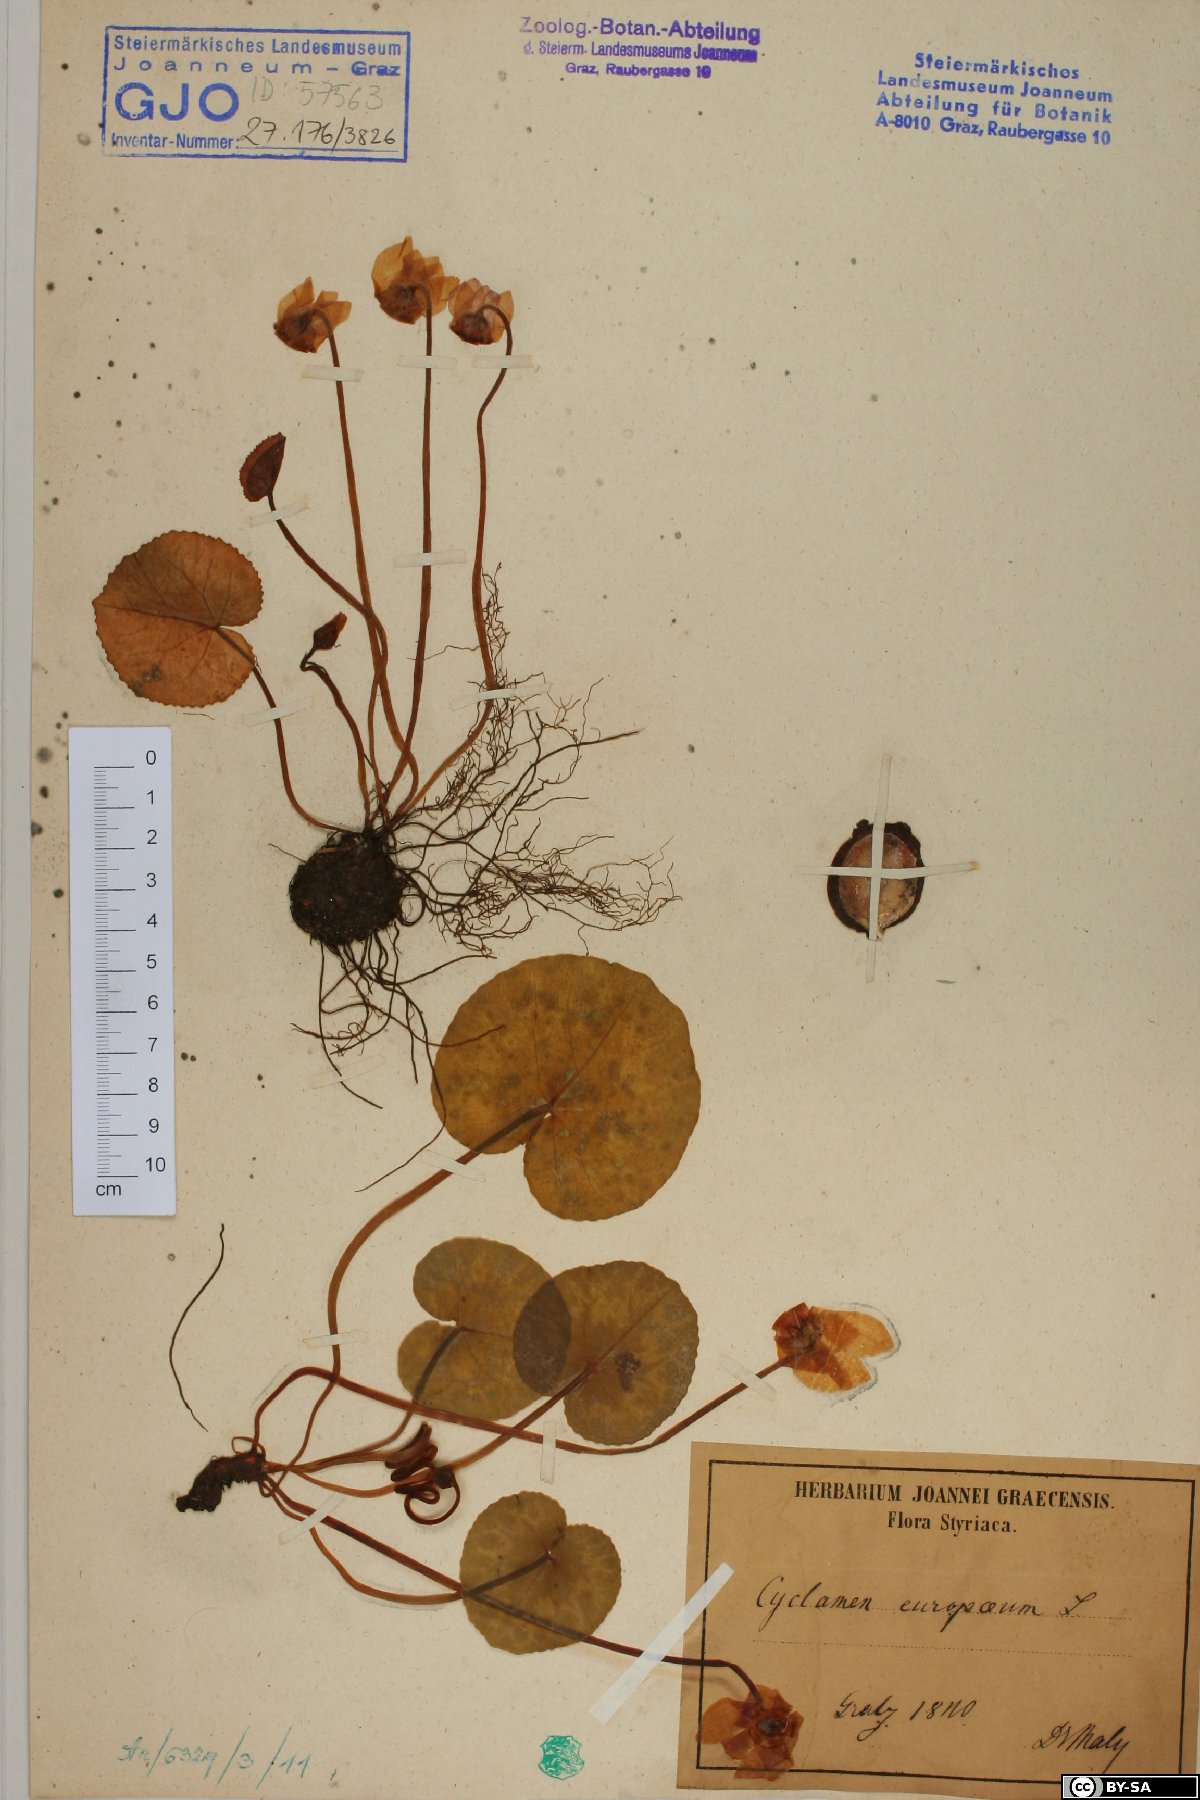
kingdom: Plantae
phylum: Tracheophyta
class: Magnoliopsida
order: Ericales
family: Primulaceae
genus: Cyclamen
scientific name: Cyclamen purpurascens
